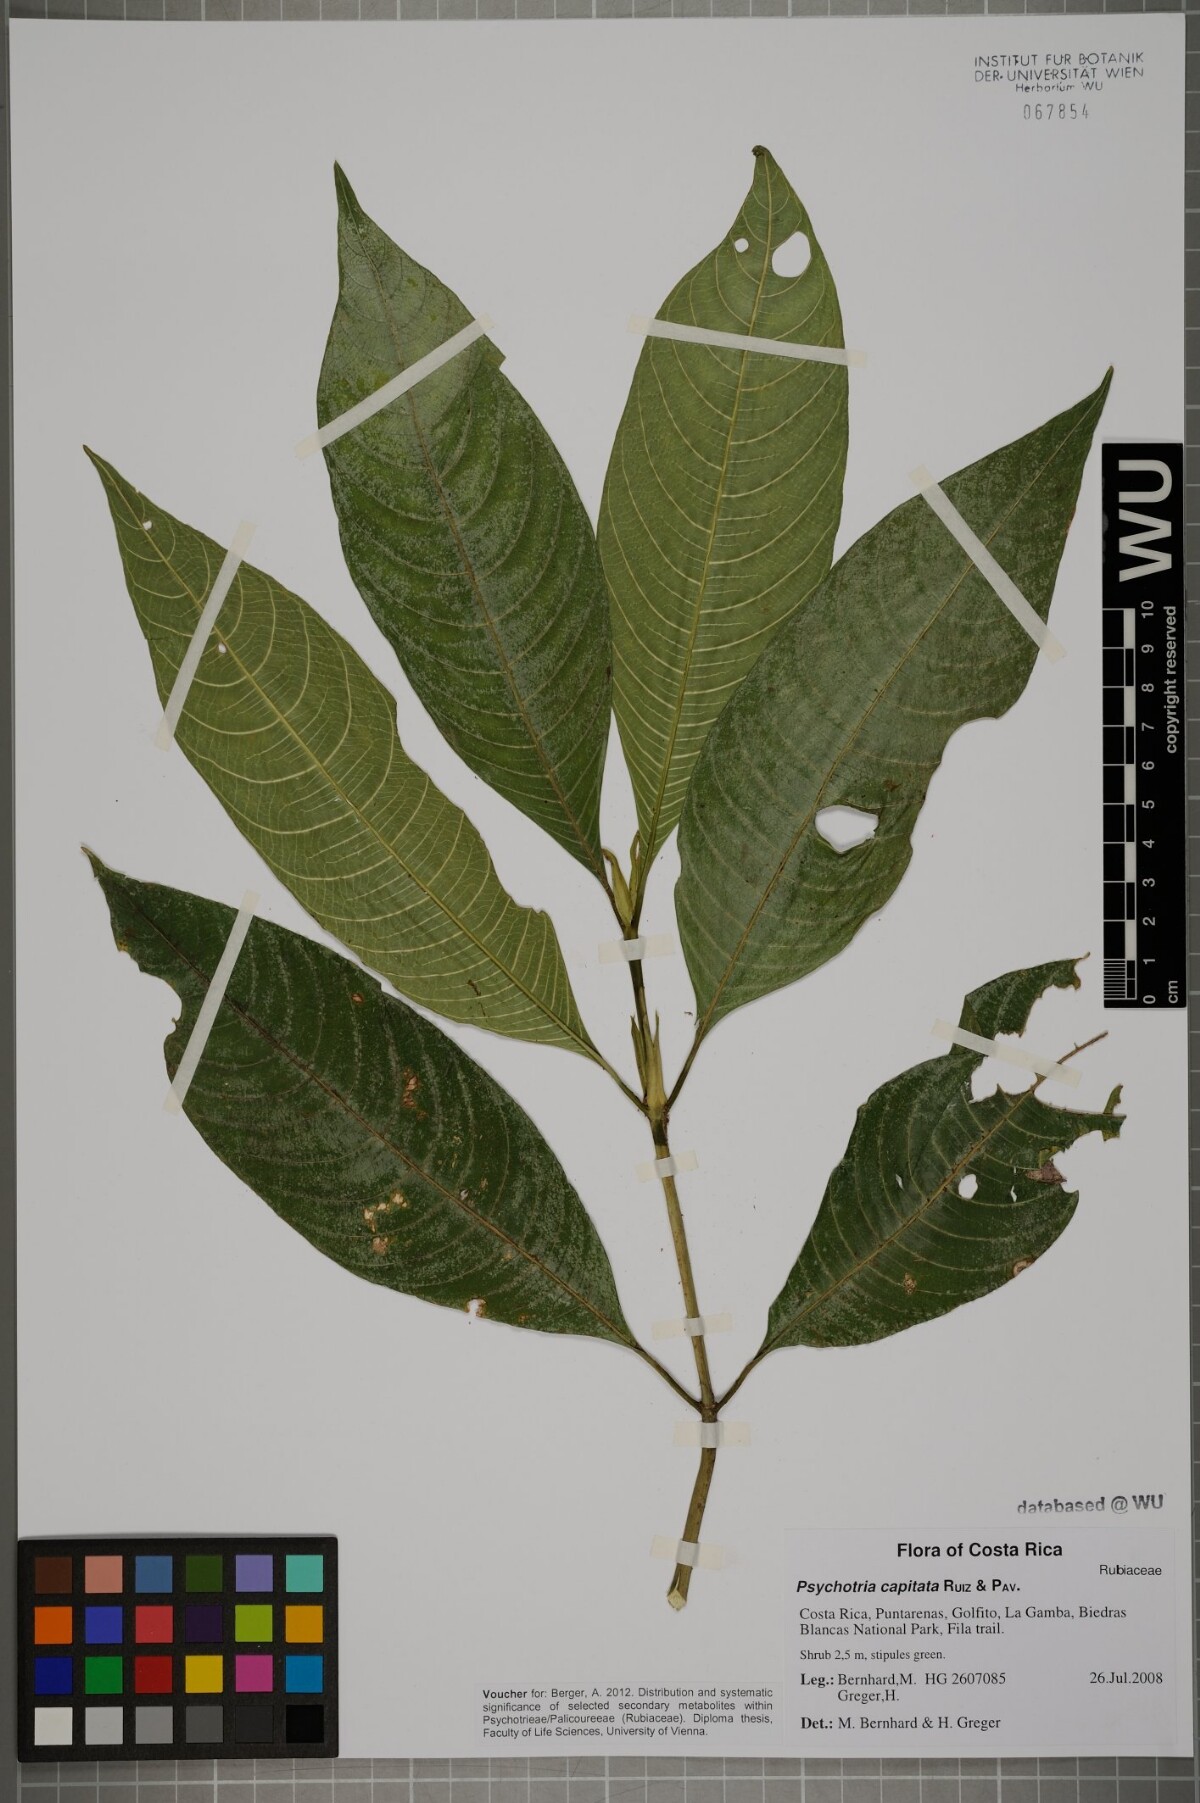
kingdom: Plantae
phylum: Tracheophyta
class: Magnoliopsida
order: Gentianales
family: Rubiaceae
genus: Palicourea
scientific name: Palicourea violacea
